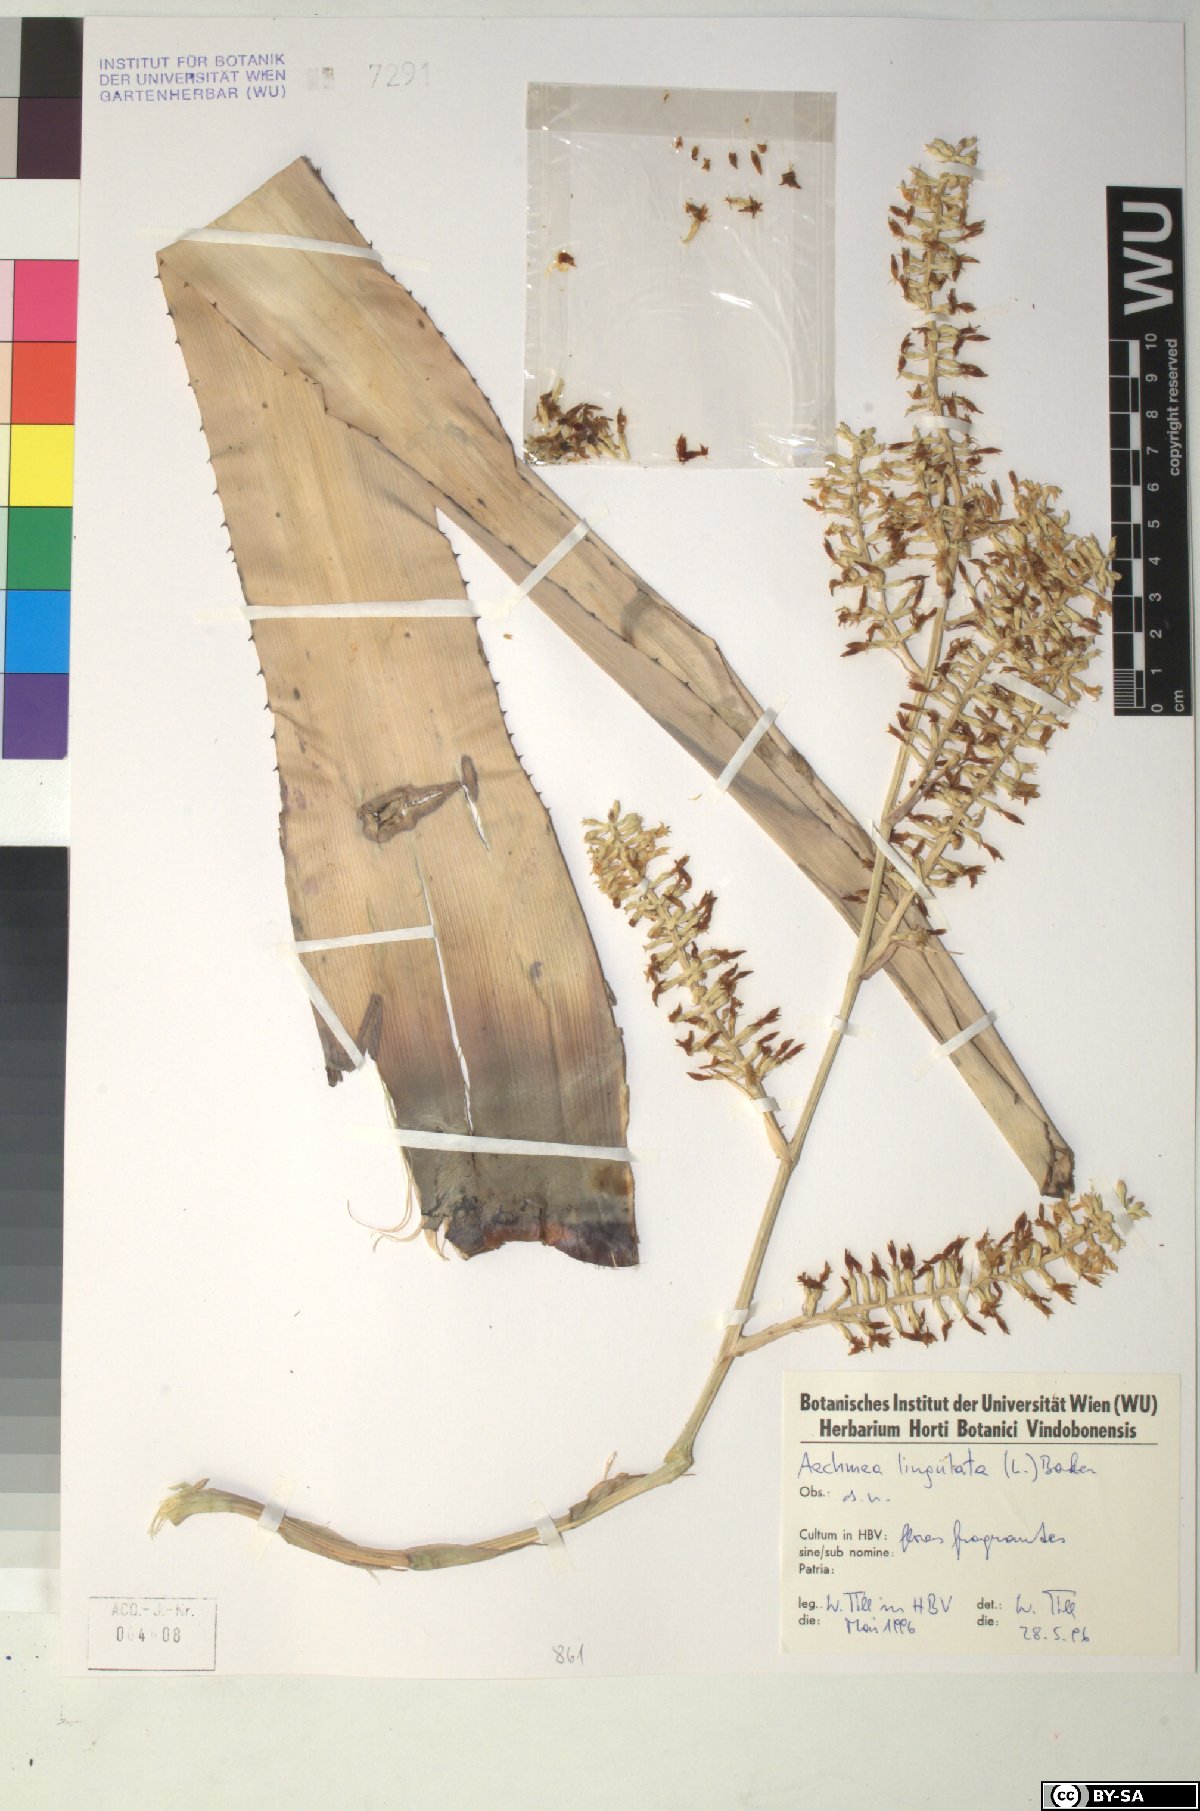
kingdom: Plantae
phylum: Tracheophyta
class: Liliopsida
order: Poales
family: Bromeliaceae
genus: Wittmackia
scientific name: Wittmackia lingulata
